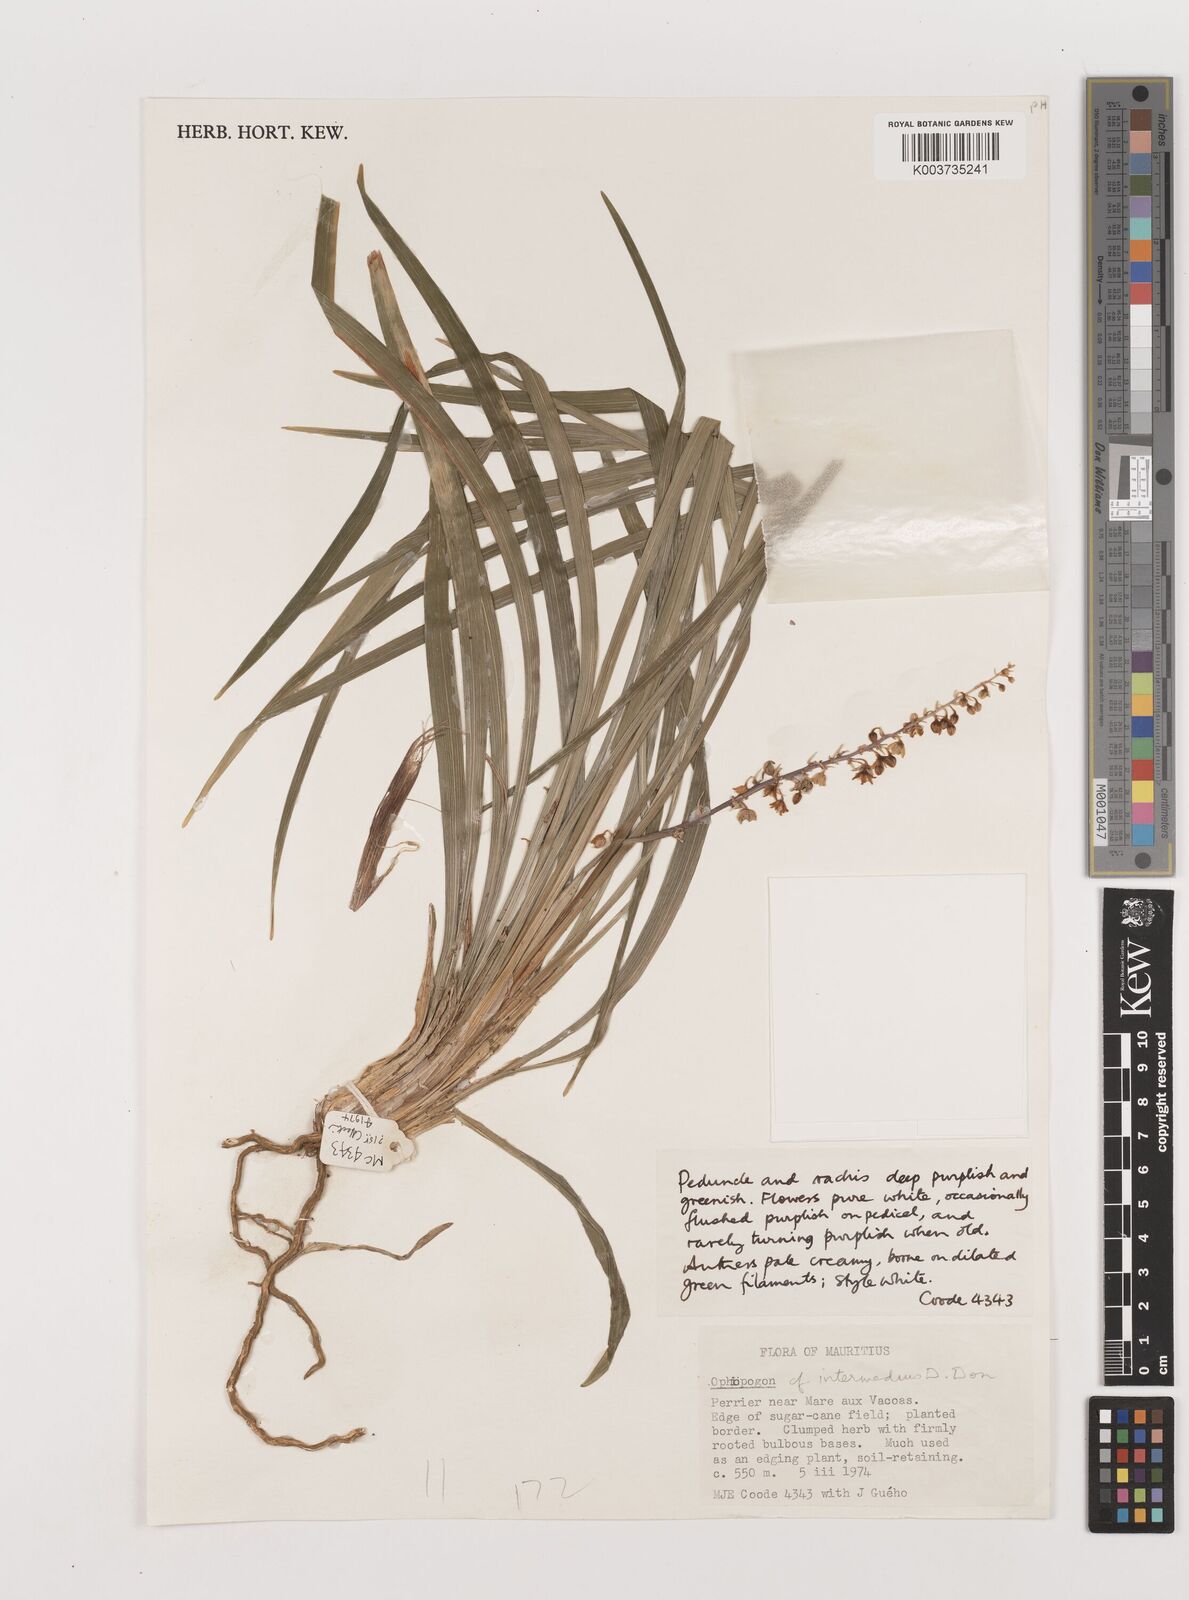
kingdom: Plantae
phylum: Tracheophyta
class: Liliopsida
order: Asparagales
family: Asparagaceae
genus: Ophiopogon
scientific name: Ophiopogon intermedius
